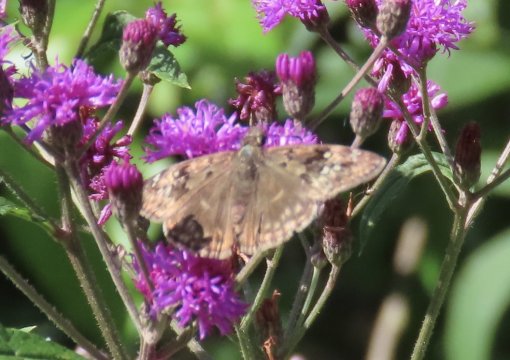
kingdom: Animalia
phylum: Arthropoda
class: Insecta
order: Lepidoptera
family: Hesperiidae
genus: Gesta
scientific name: Gesta
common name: Horace's Duskywing
